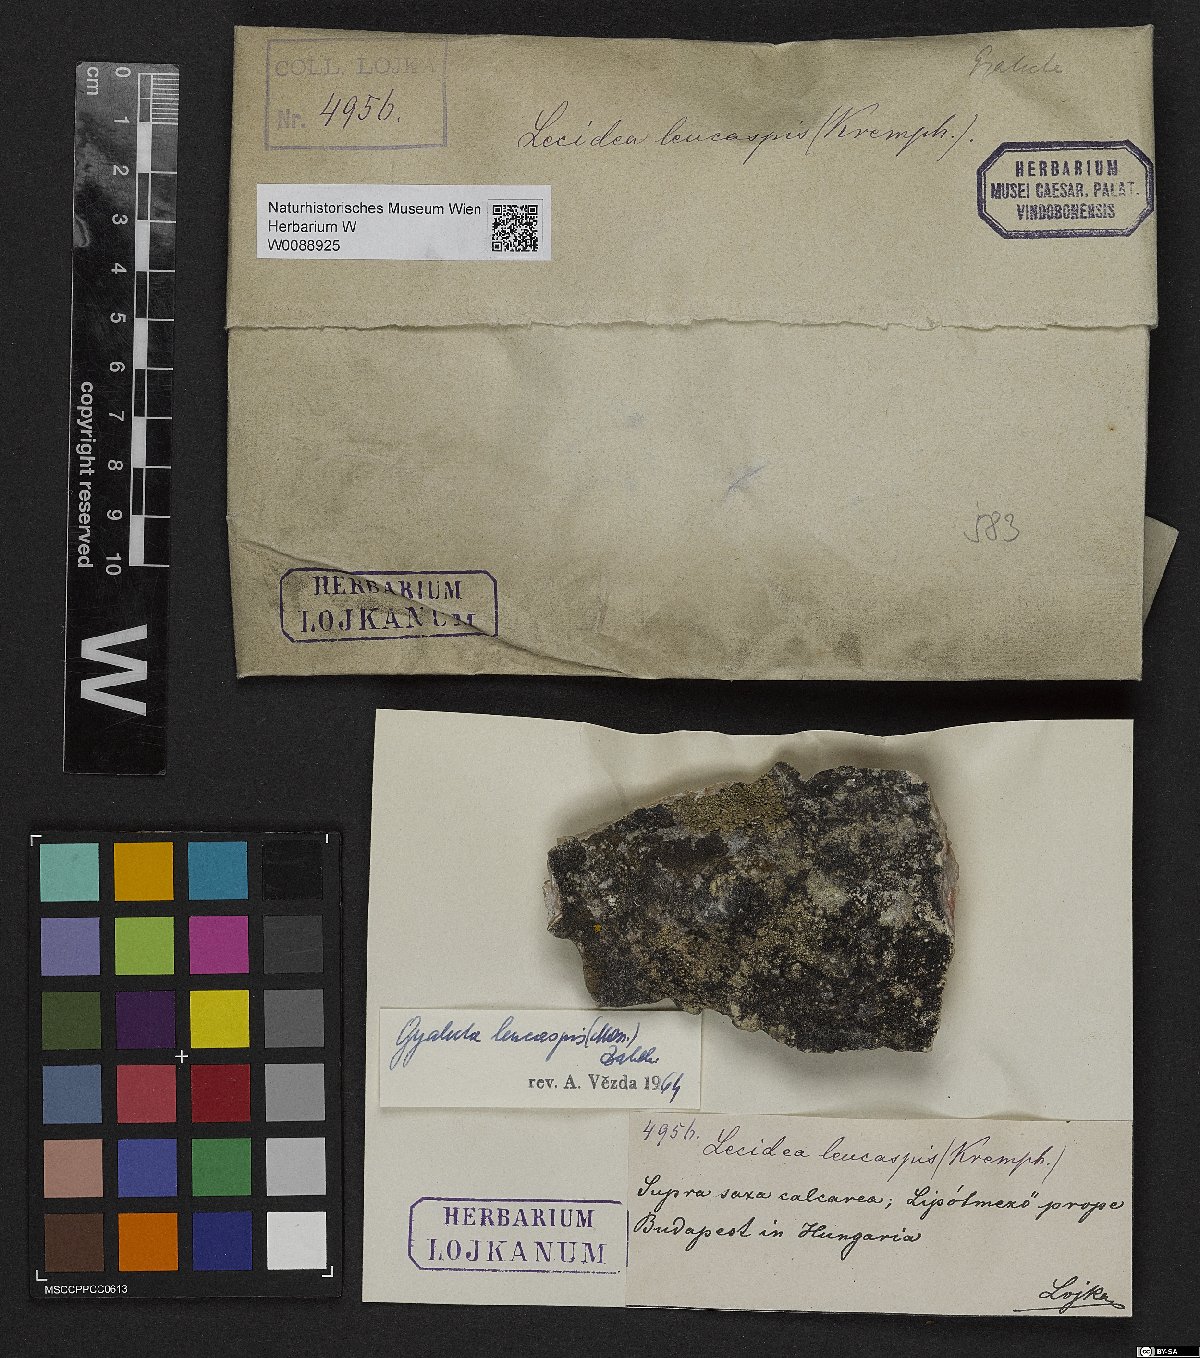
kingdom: Fungi
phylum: Ascomycota
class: Lecanoromycetes
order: Gyalectales
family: Gyalectaceae
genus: Gyalecta
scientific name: Gyalecta leucaspis
